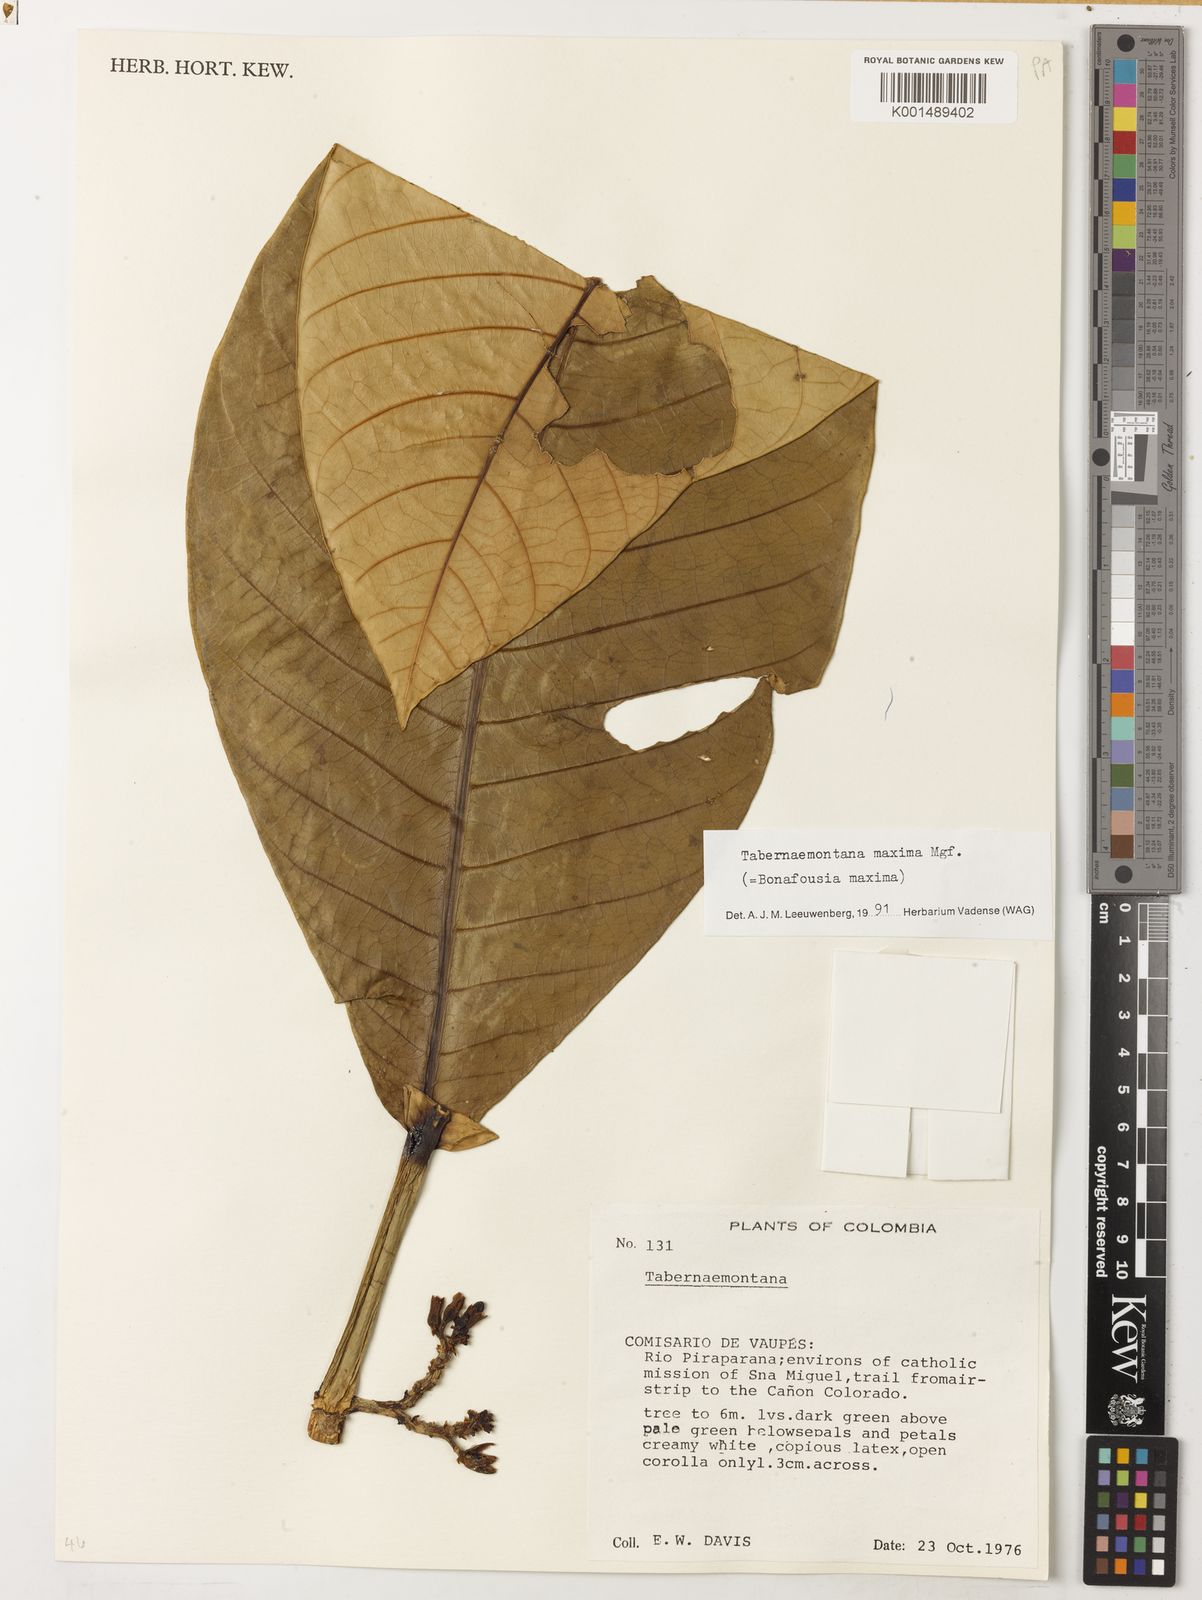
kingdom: Plantae
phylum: Tracheophyta
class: Magnoliopsida
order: Gentianales
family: Apocynaceae
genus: Tabernaemontana
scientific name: Tabernaemontana maxima
